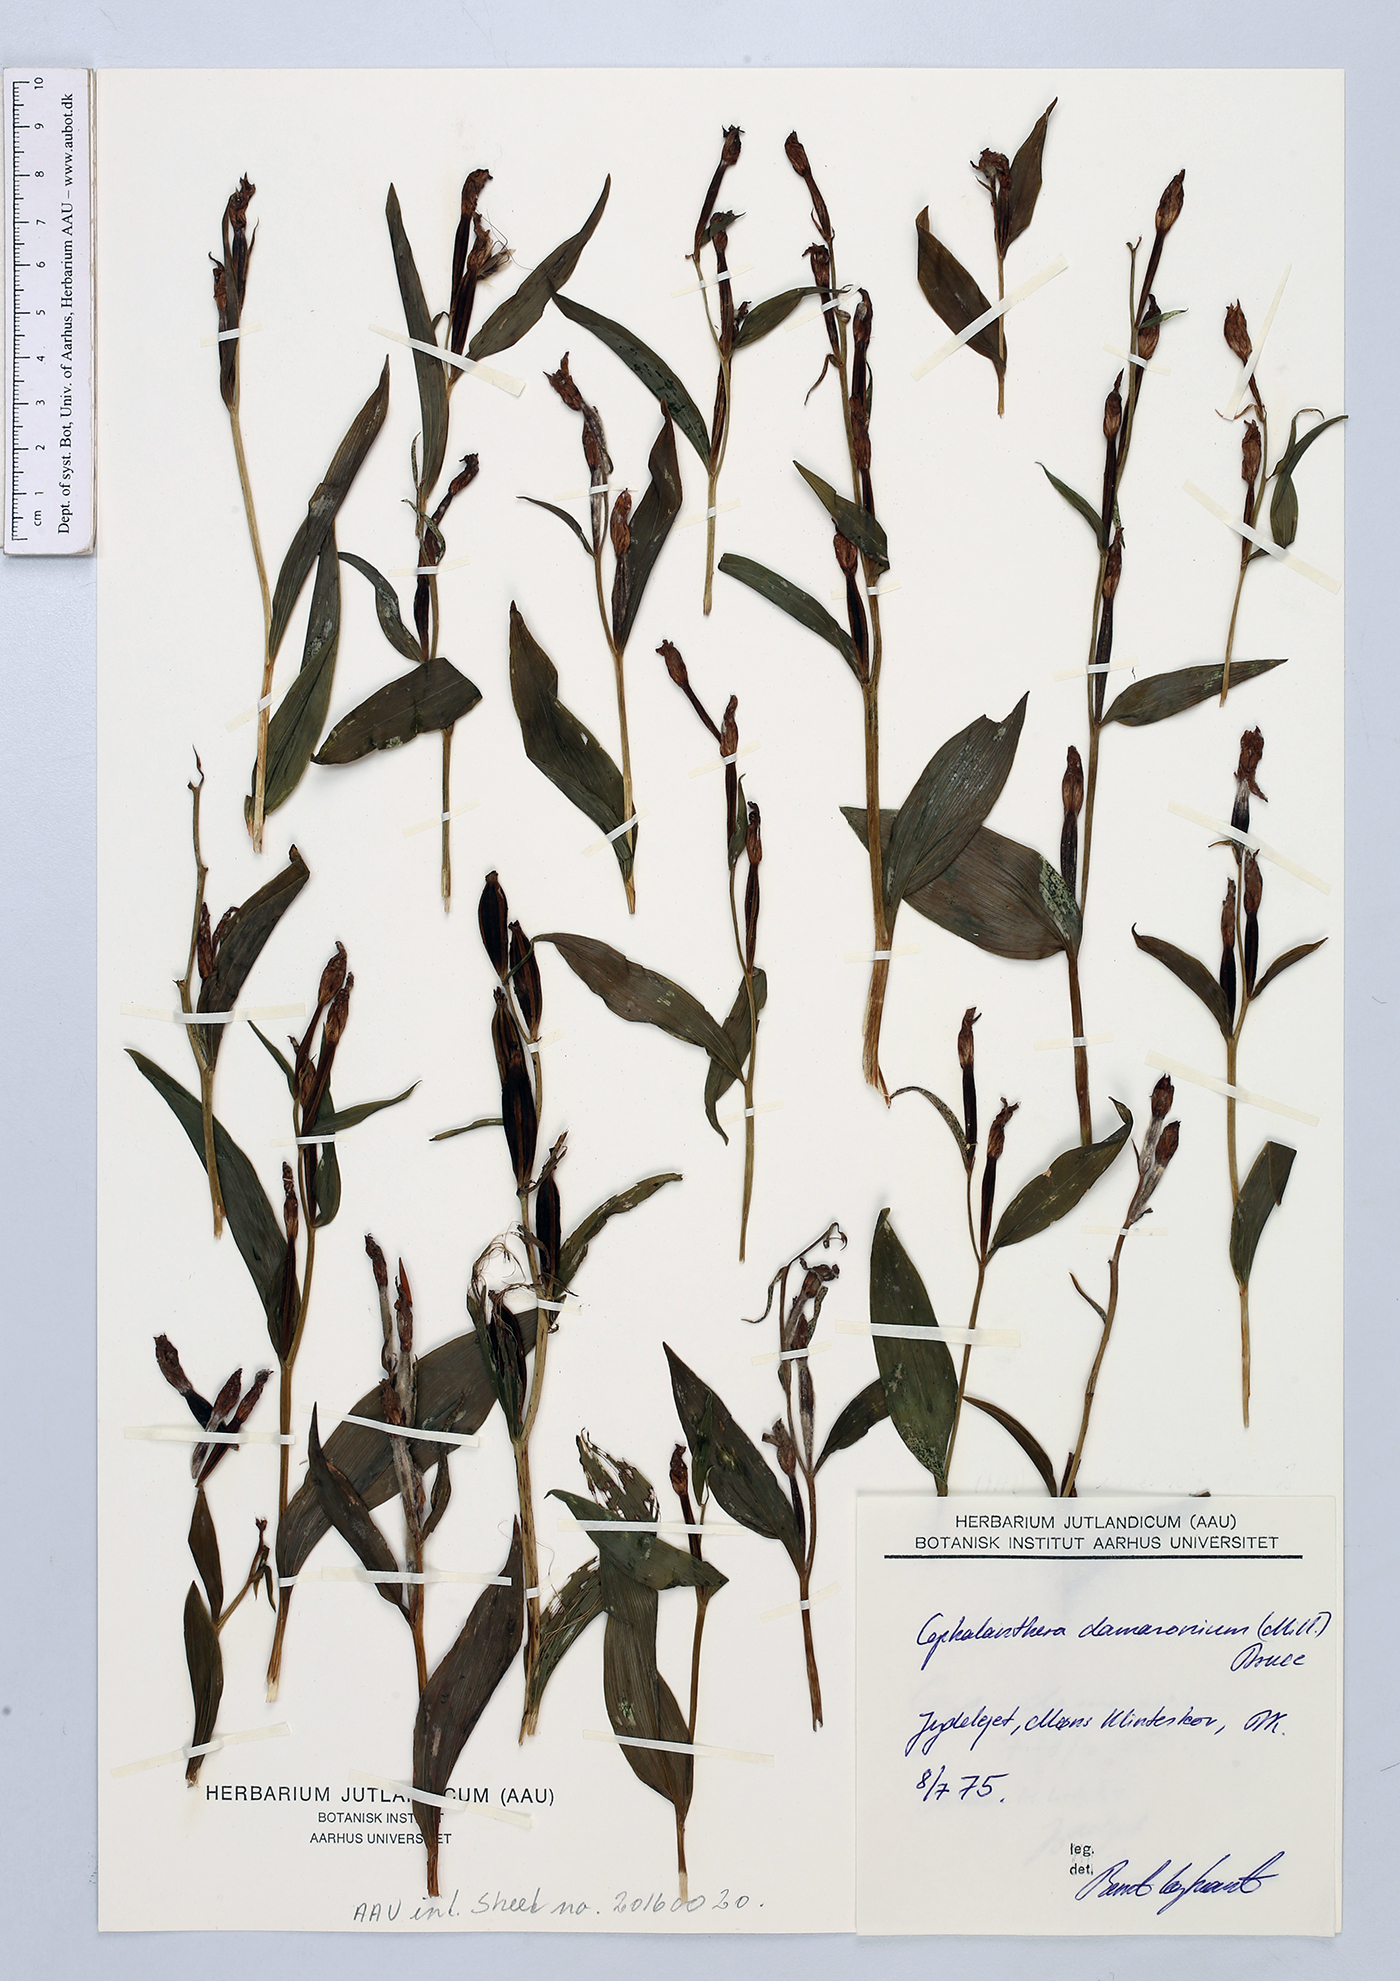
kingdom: Plantae
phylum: Tracheophyta
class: Liliopsida
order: Asparagales
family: Orchidaceae
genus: Cephalanthera
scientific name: Cephalanthera damasonium
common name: White helleborine
